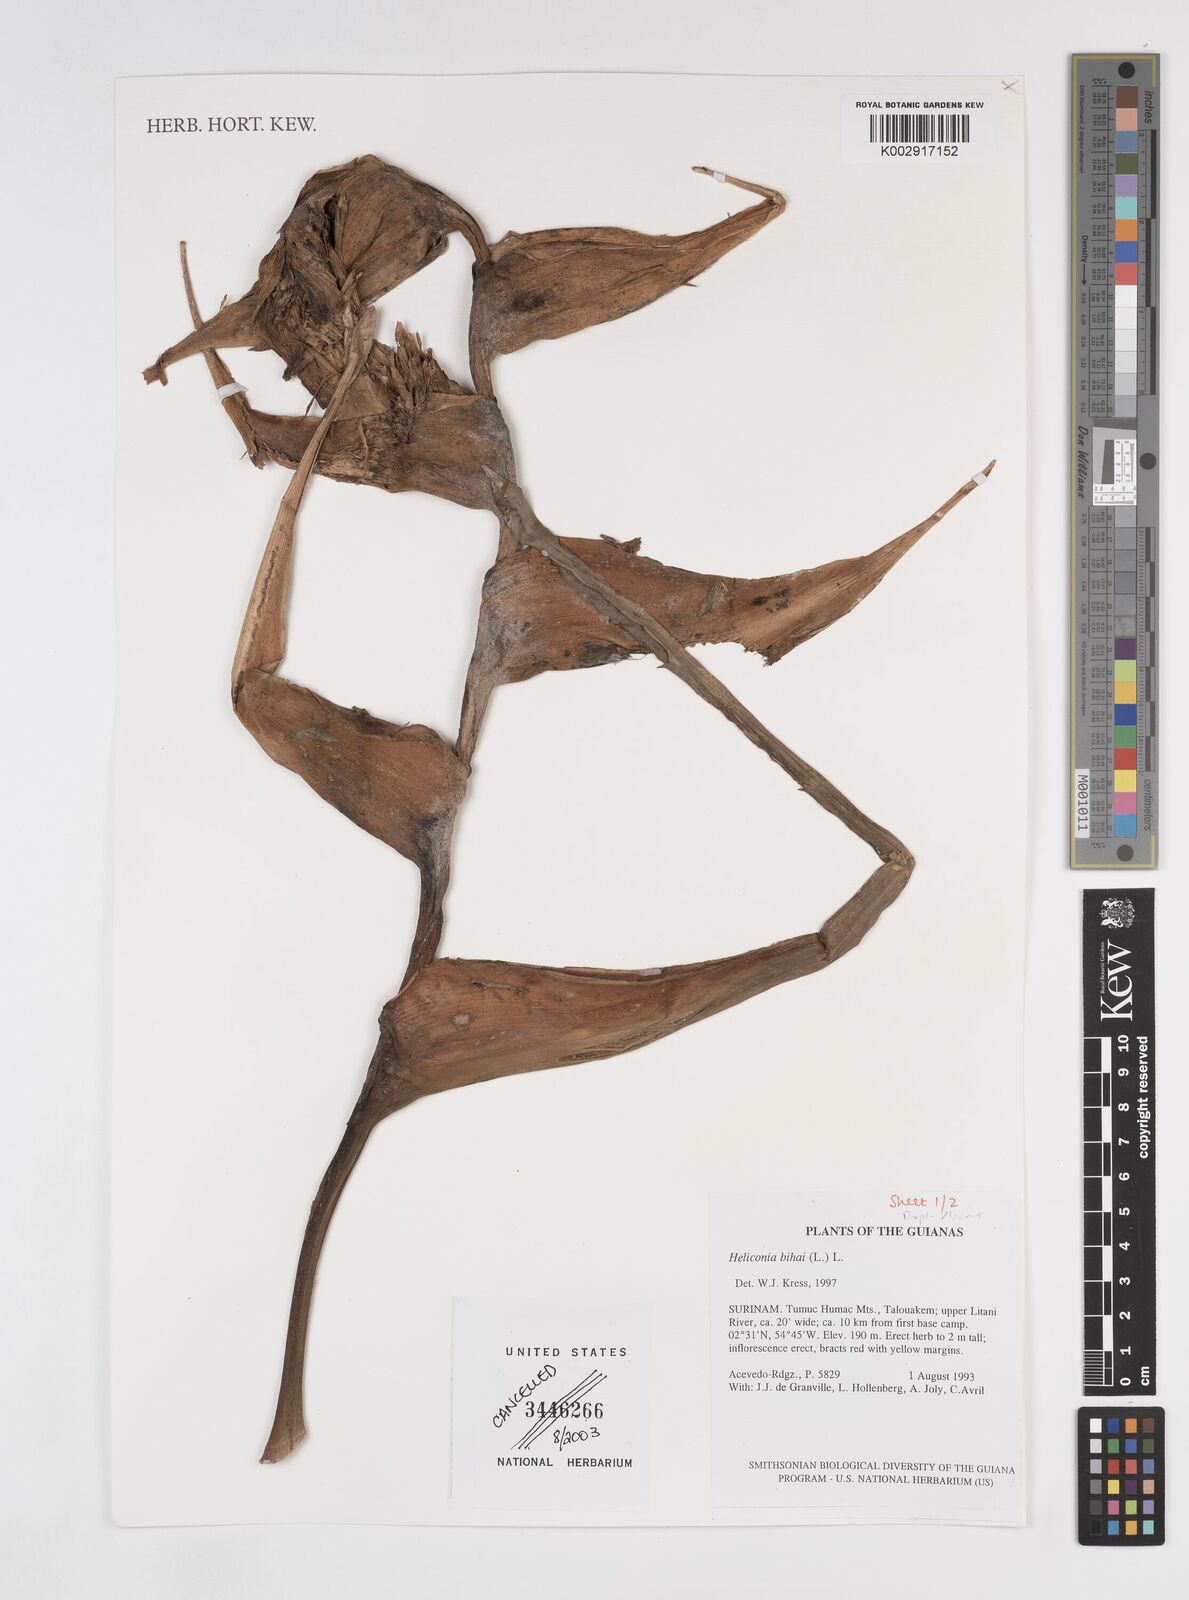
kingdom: Plantae
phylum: Tracheophyta
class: Liliopsida
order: Zingiberales
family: Heliconiaceae
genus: Heliconia
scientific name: Heliconia bihai
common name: Macaw flower
